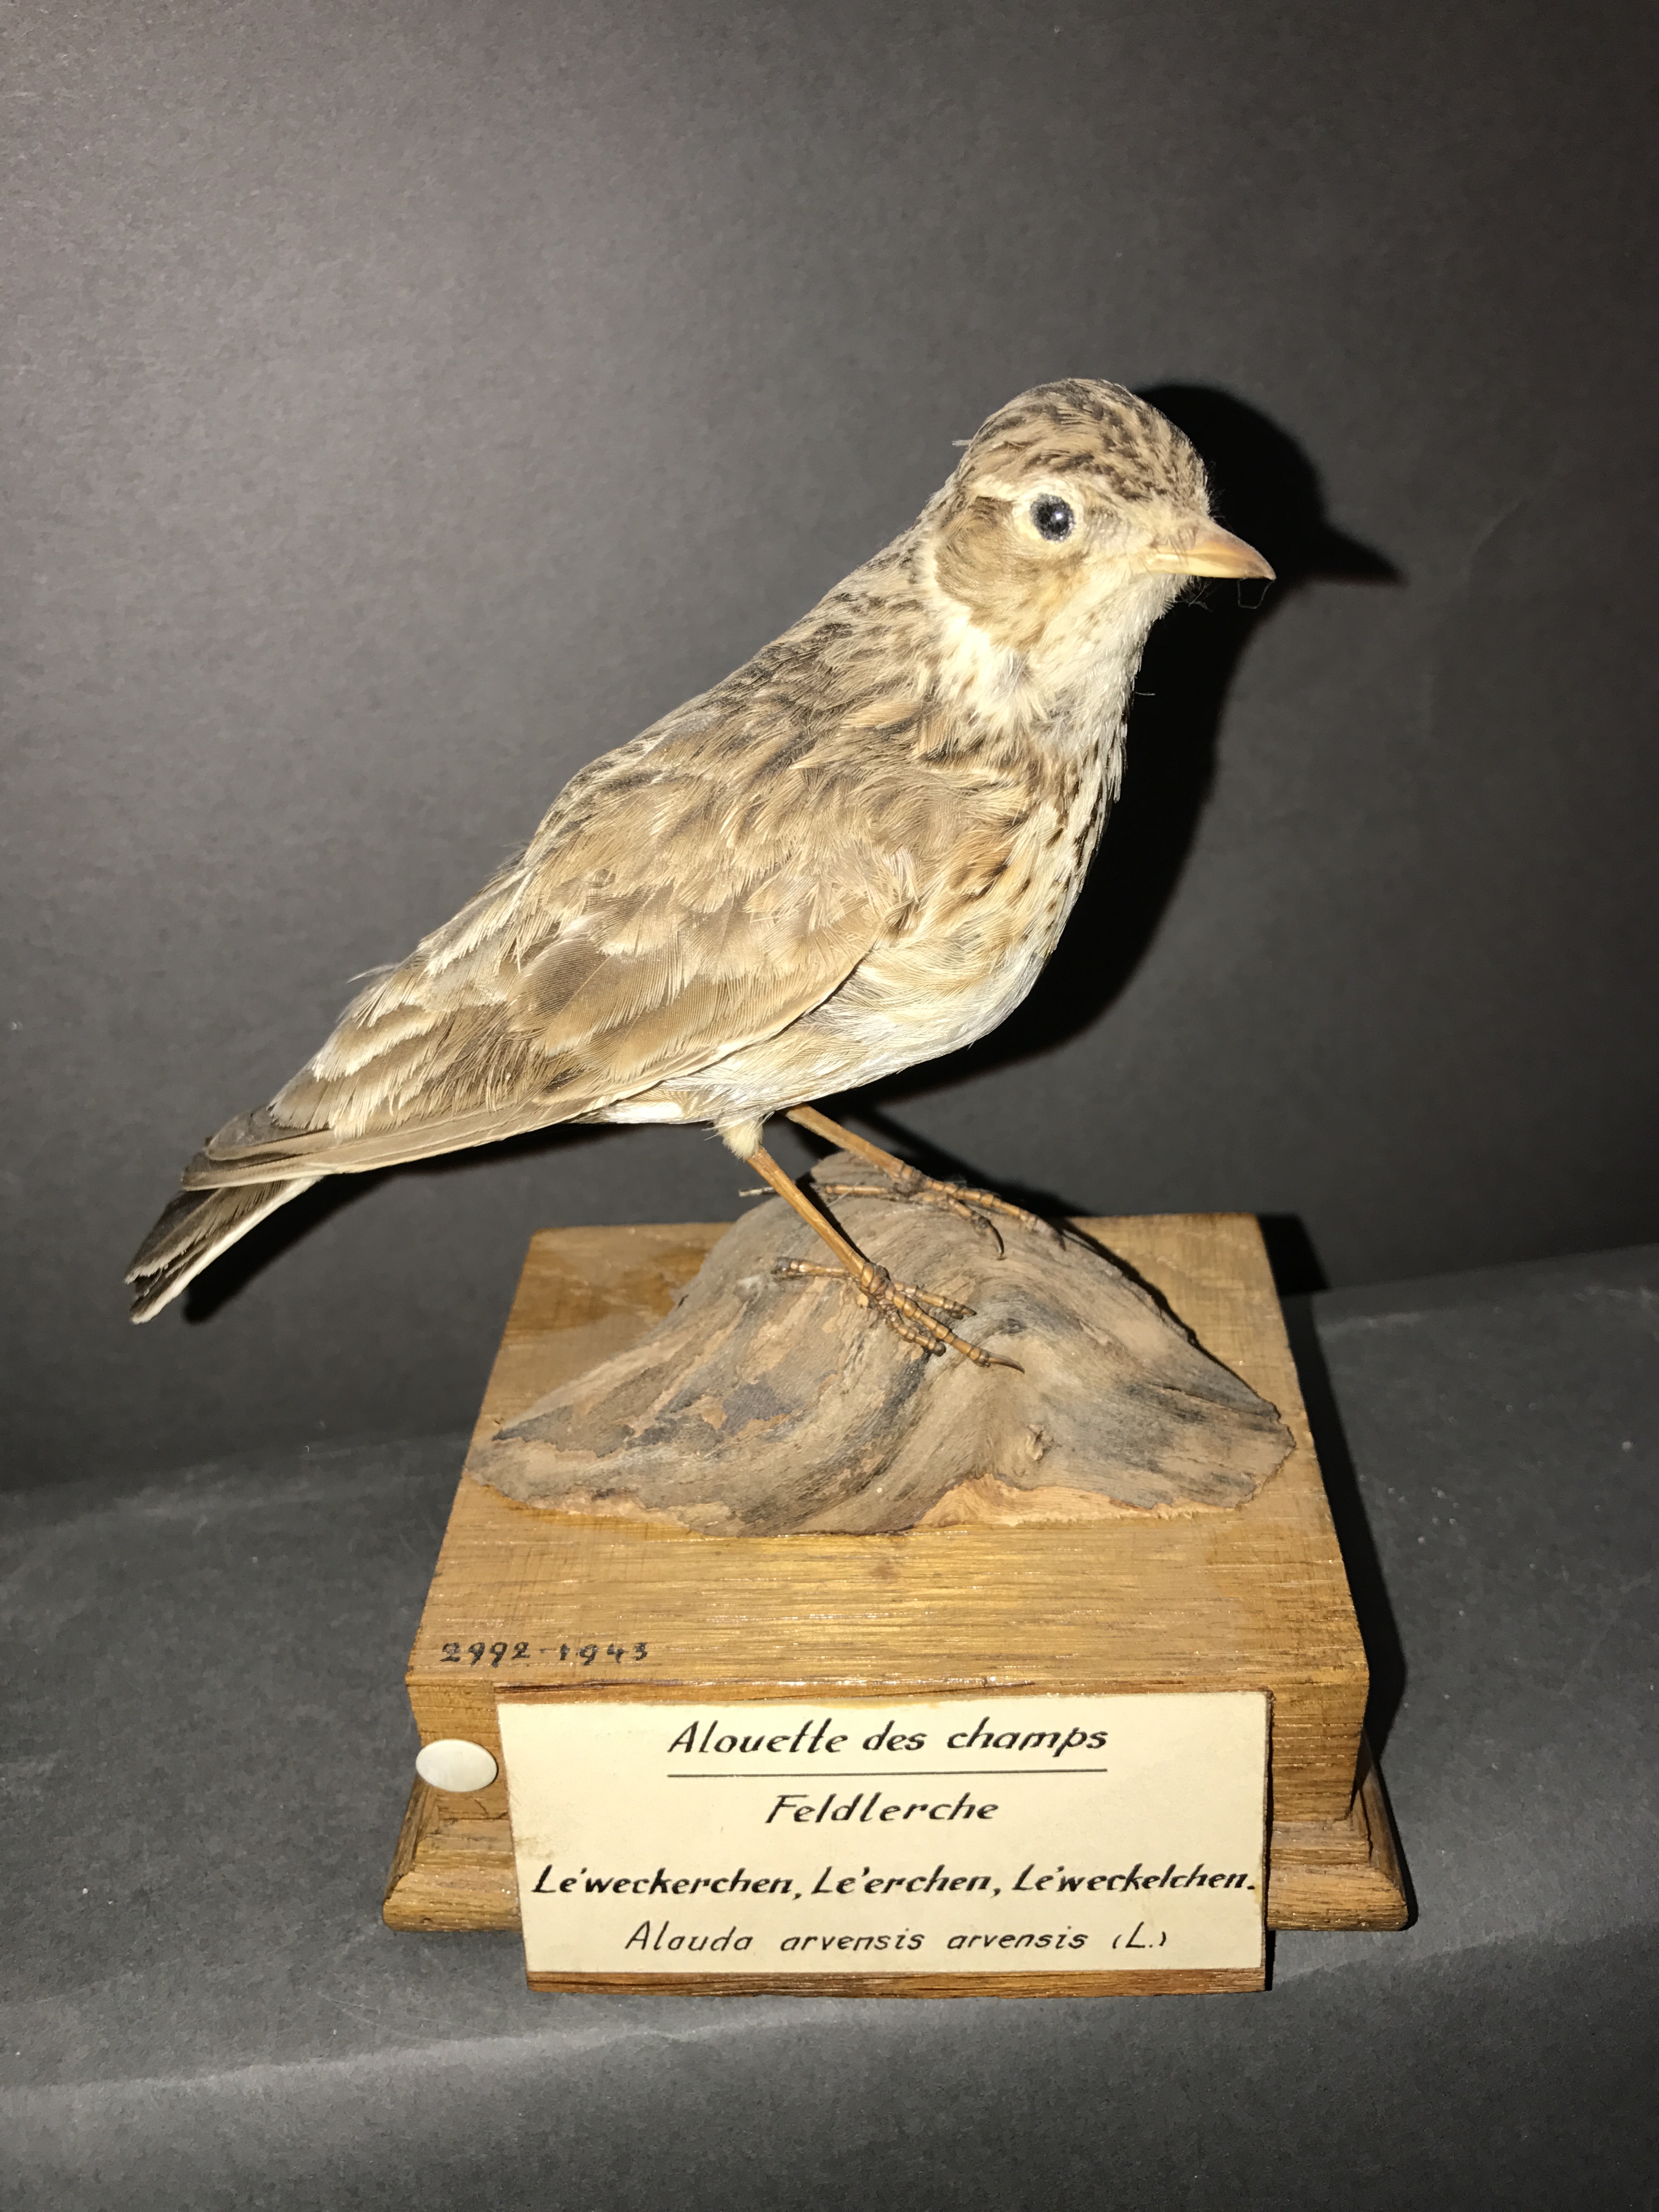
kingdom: Animalia
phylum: Chordata
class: Aves
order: Passeriformes
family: Alaudidae
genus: Alauda
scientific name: Alauda arvensis
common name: Eurasian skylark
